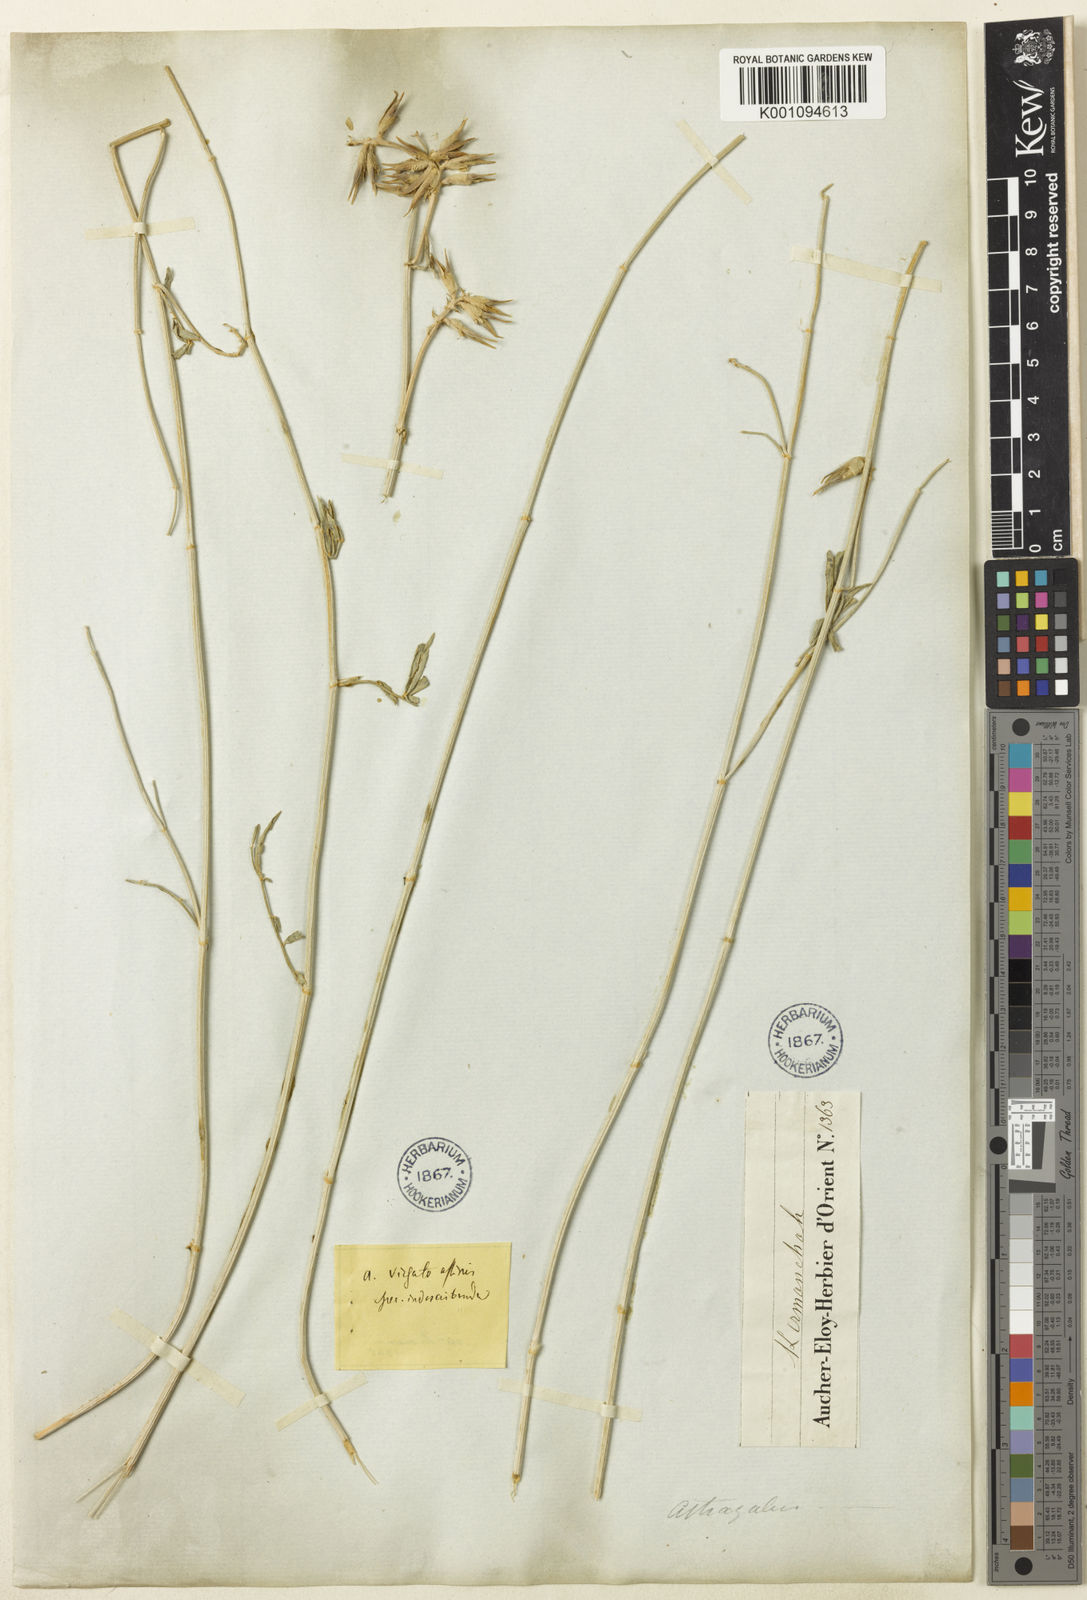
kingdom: Plantae
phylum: Tracheophyta
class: Magnoliopsida
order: Fabales
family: Fabaceae
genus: Astragalus
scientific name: Astragalus
